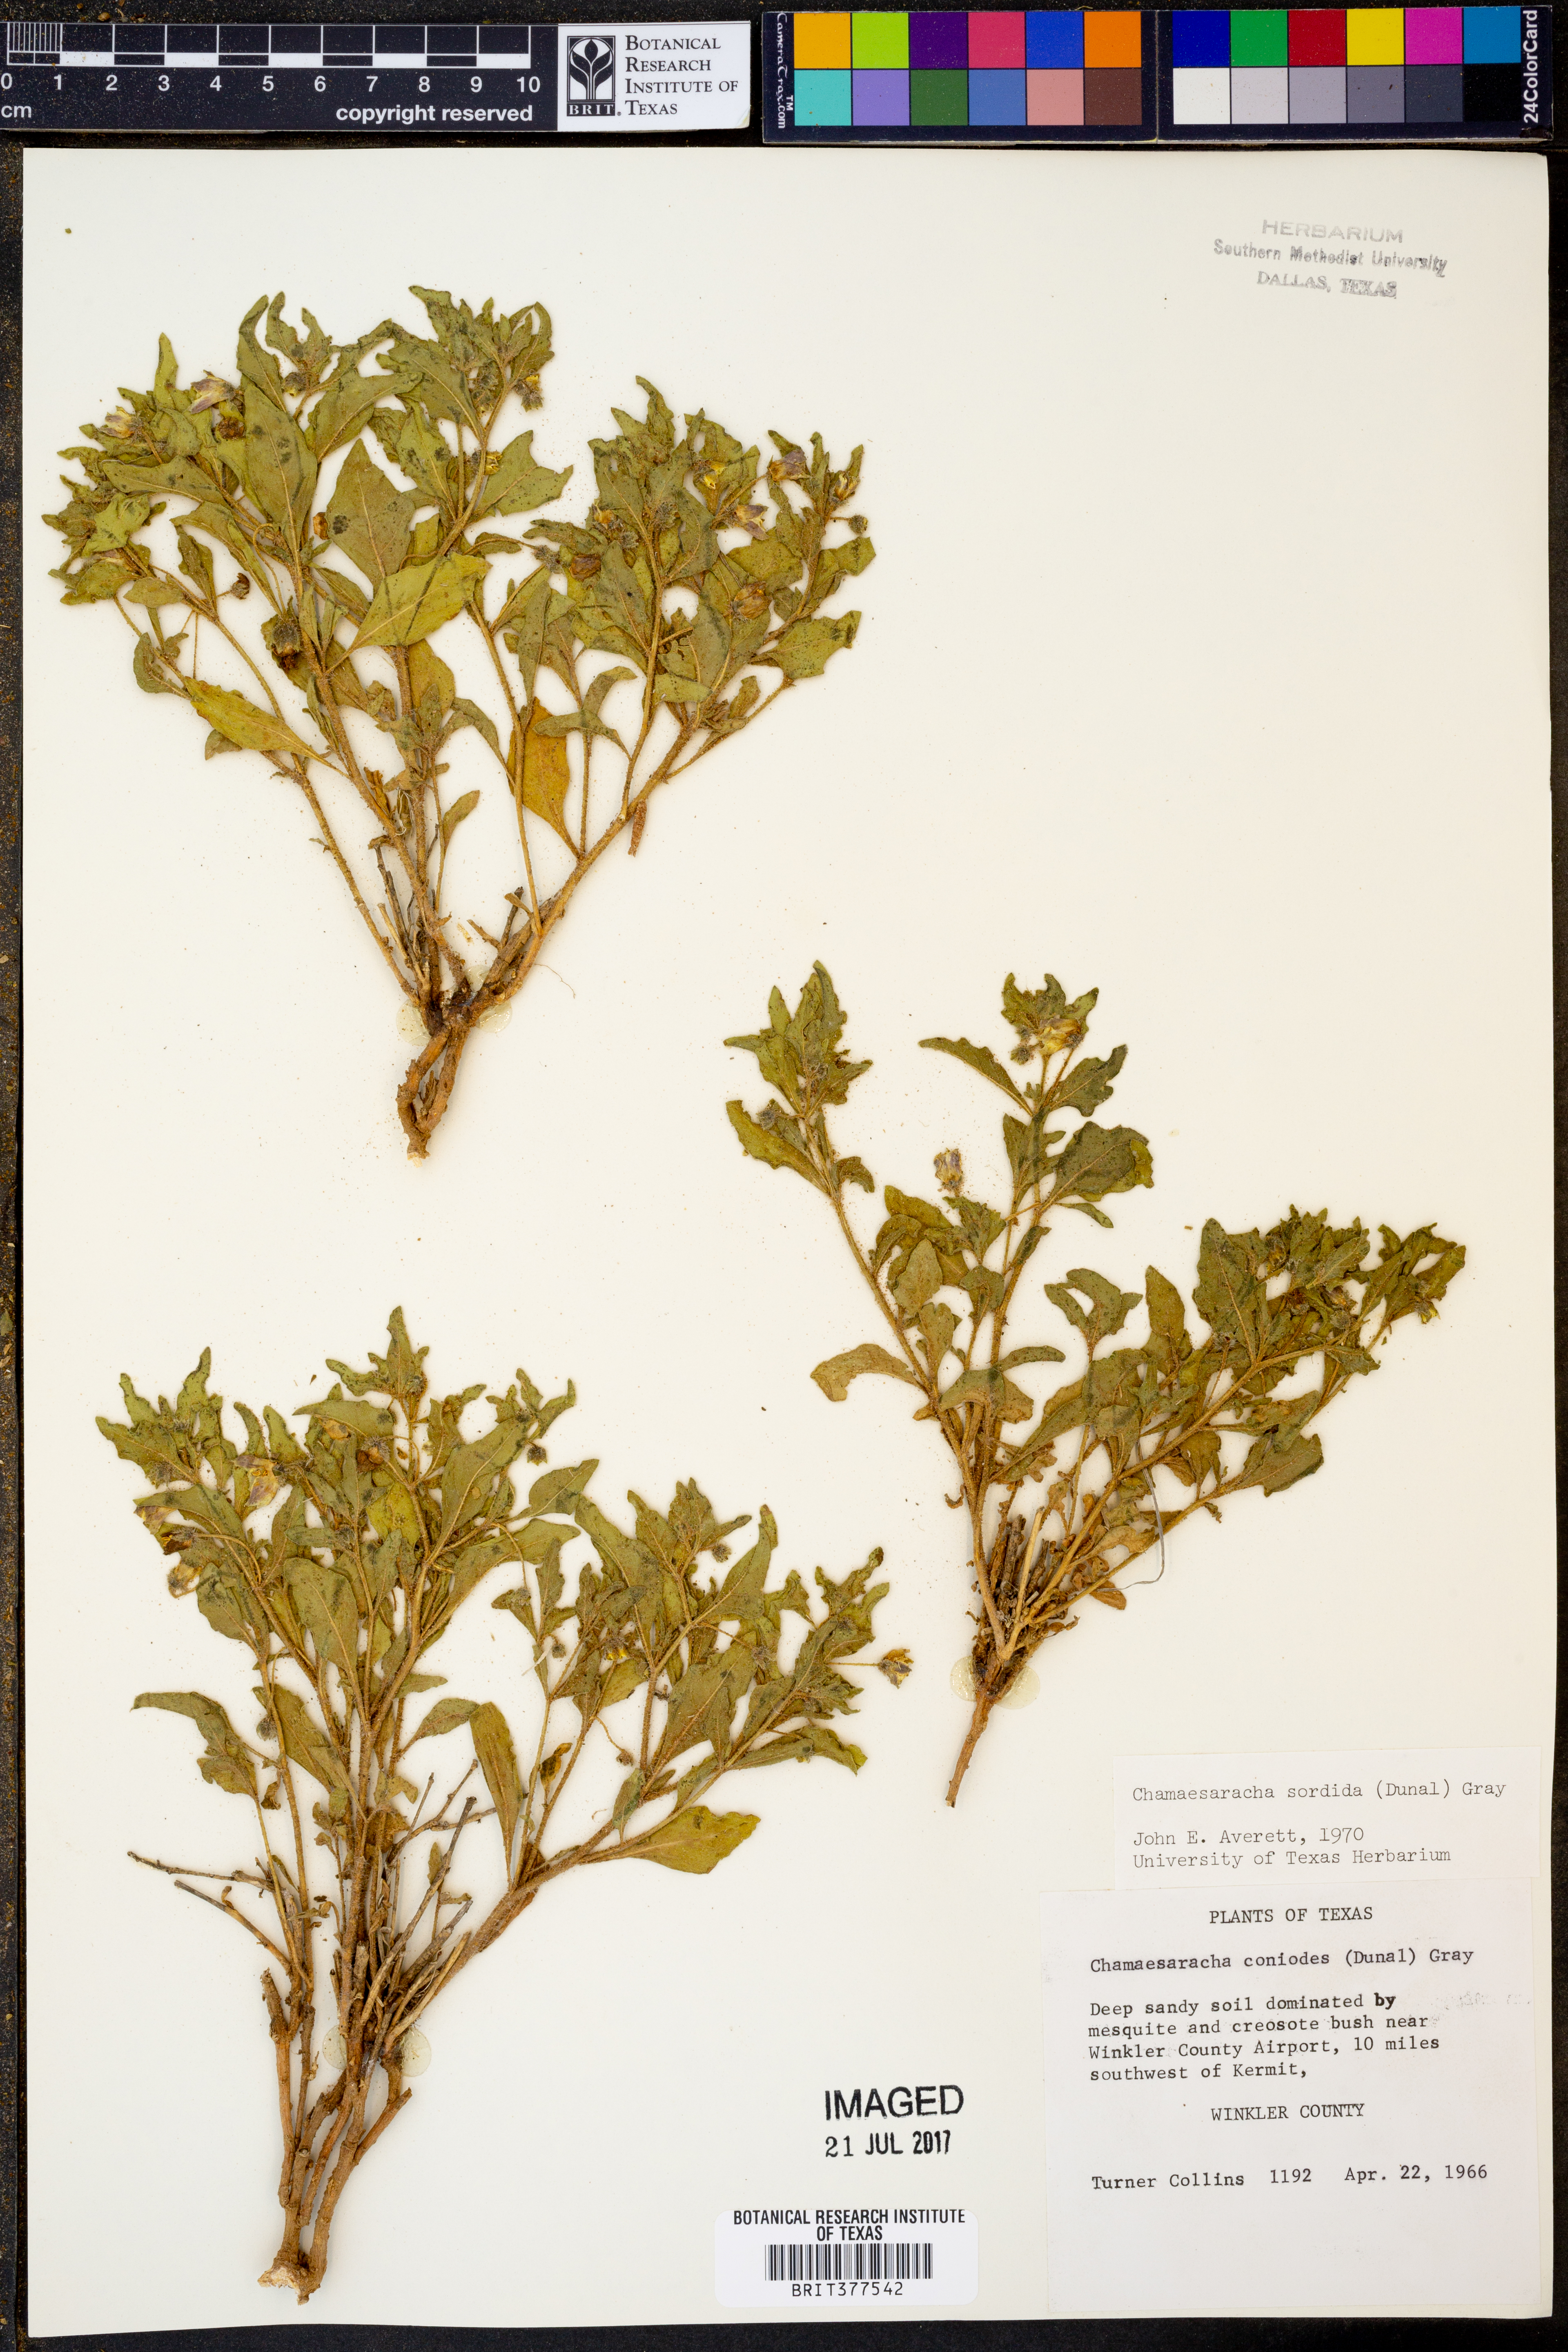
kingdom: Plantae
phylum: Tracheophyta
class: Magnoliopsida
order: Solanales
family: Solanaceae
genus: Chamaesaracha
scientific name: Chamaesaracha sordida
